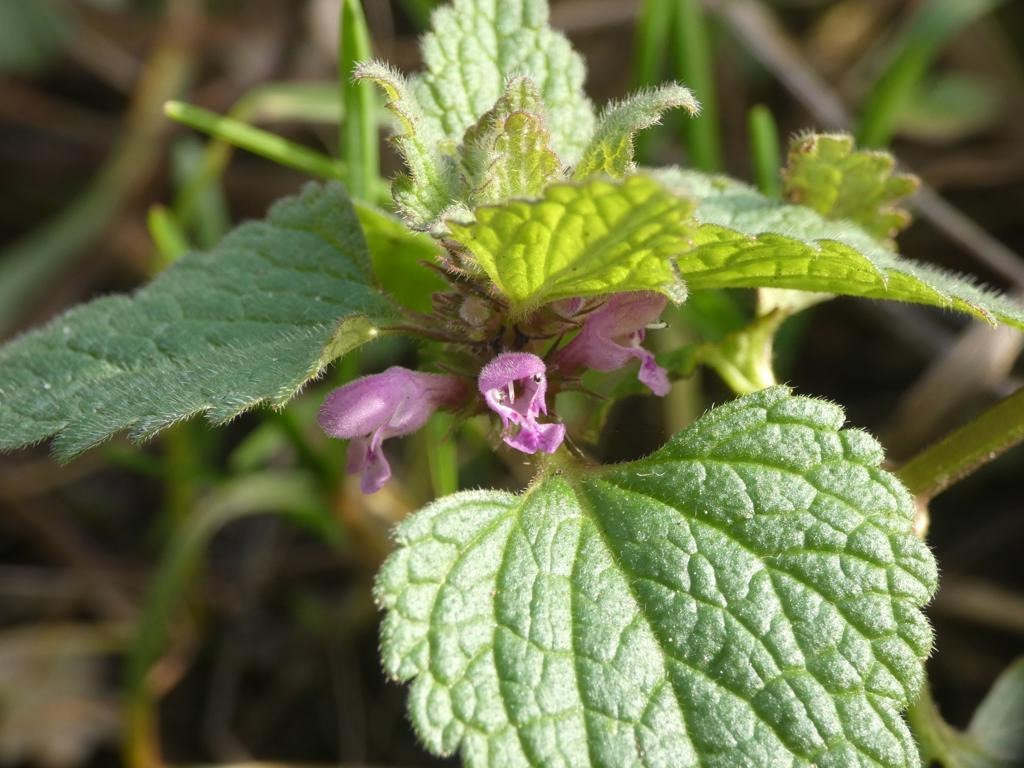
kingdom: Plantae
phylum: Tracheophyta
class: Magnoliopsida
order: Lamiales
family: Lamiaceae
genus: Lamium
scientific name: Lamium purpureum
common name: Rød tvetand
